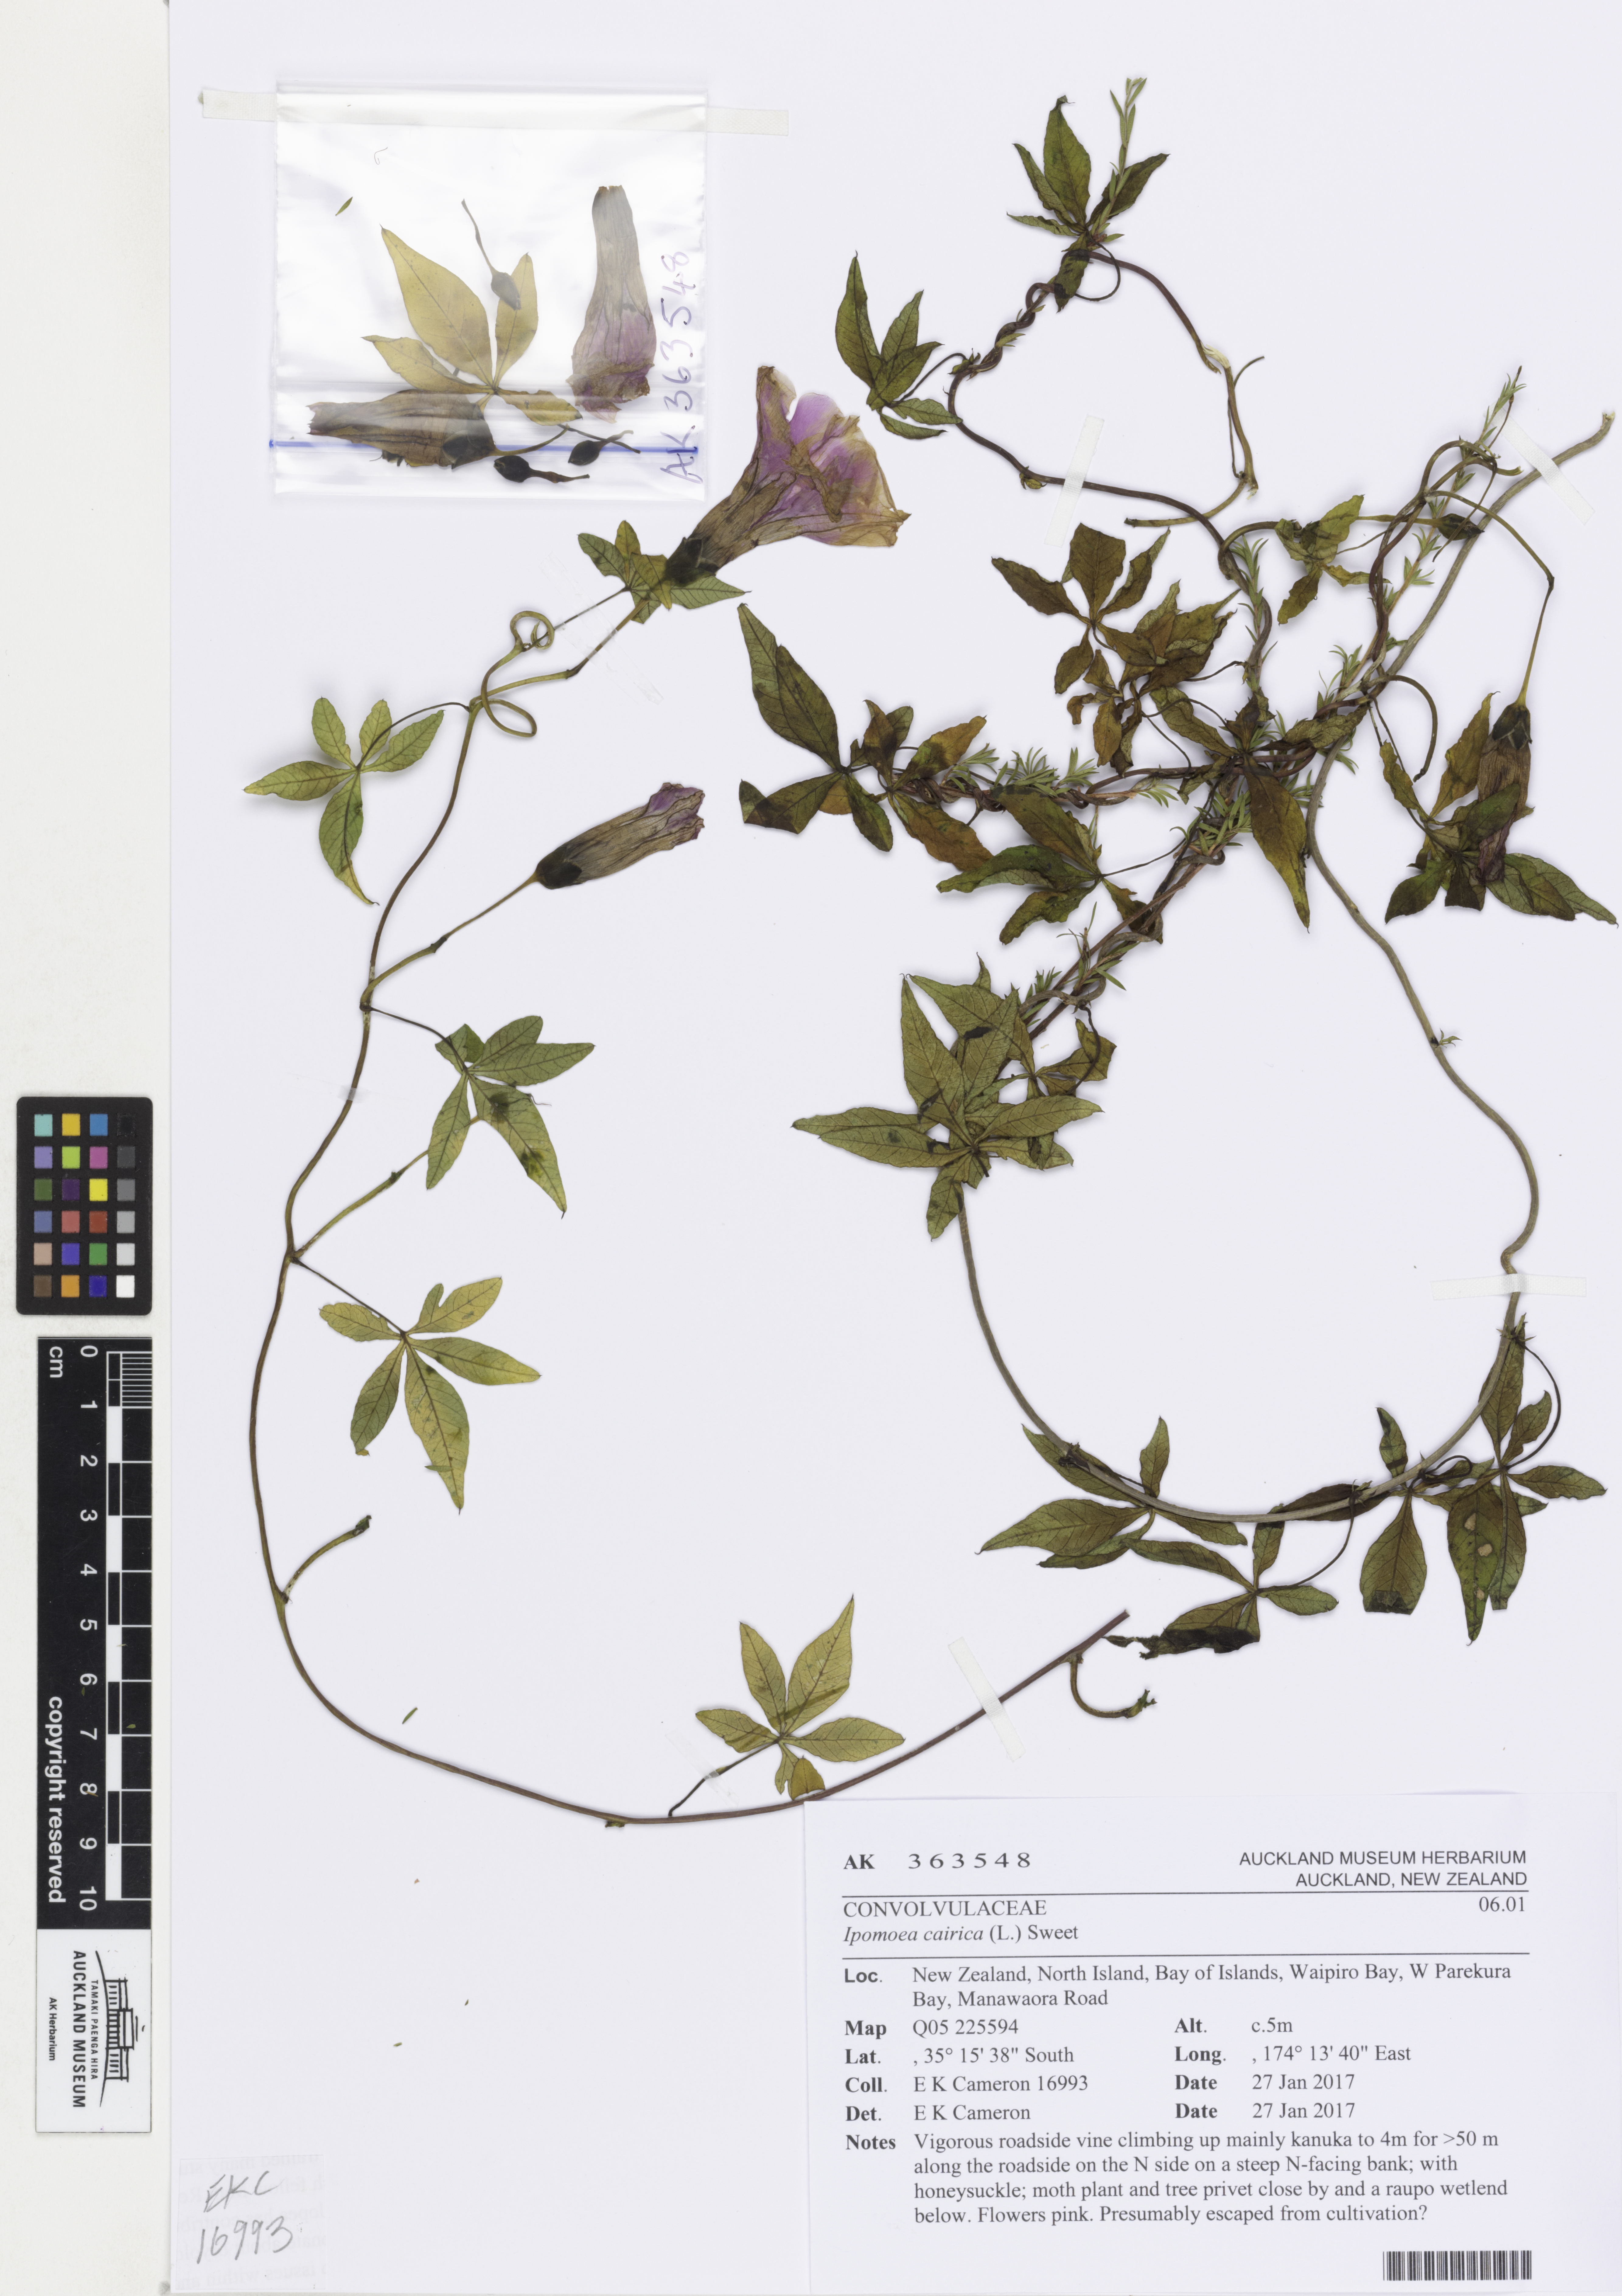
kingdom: Plantae
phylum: Tracheophyta
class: Magnoliopsida
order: Solanales
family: Convolvulaceae
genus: Ipomoea
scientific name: Ipomoea cairica
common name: Mile a minute vine
